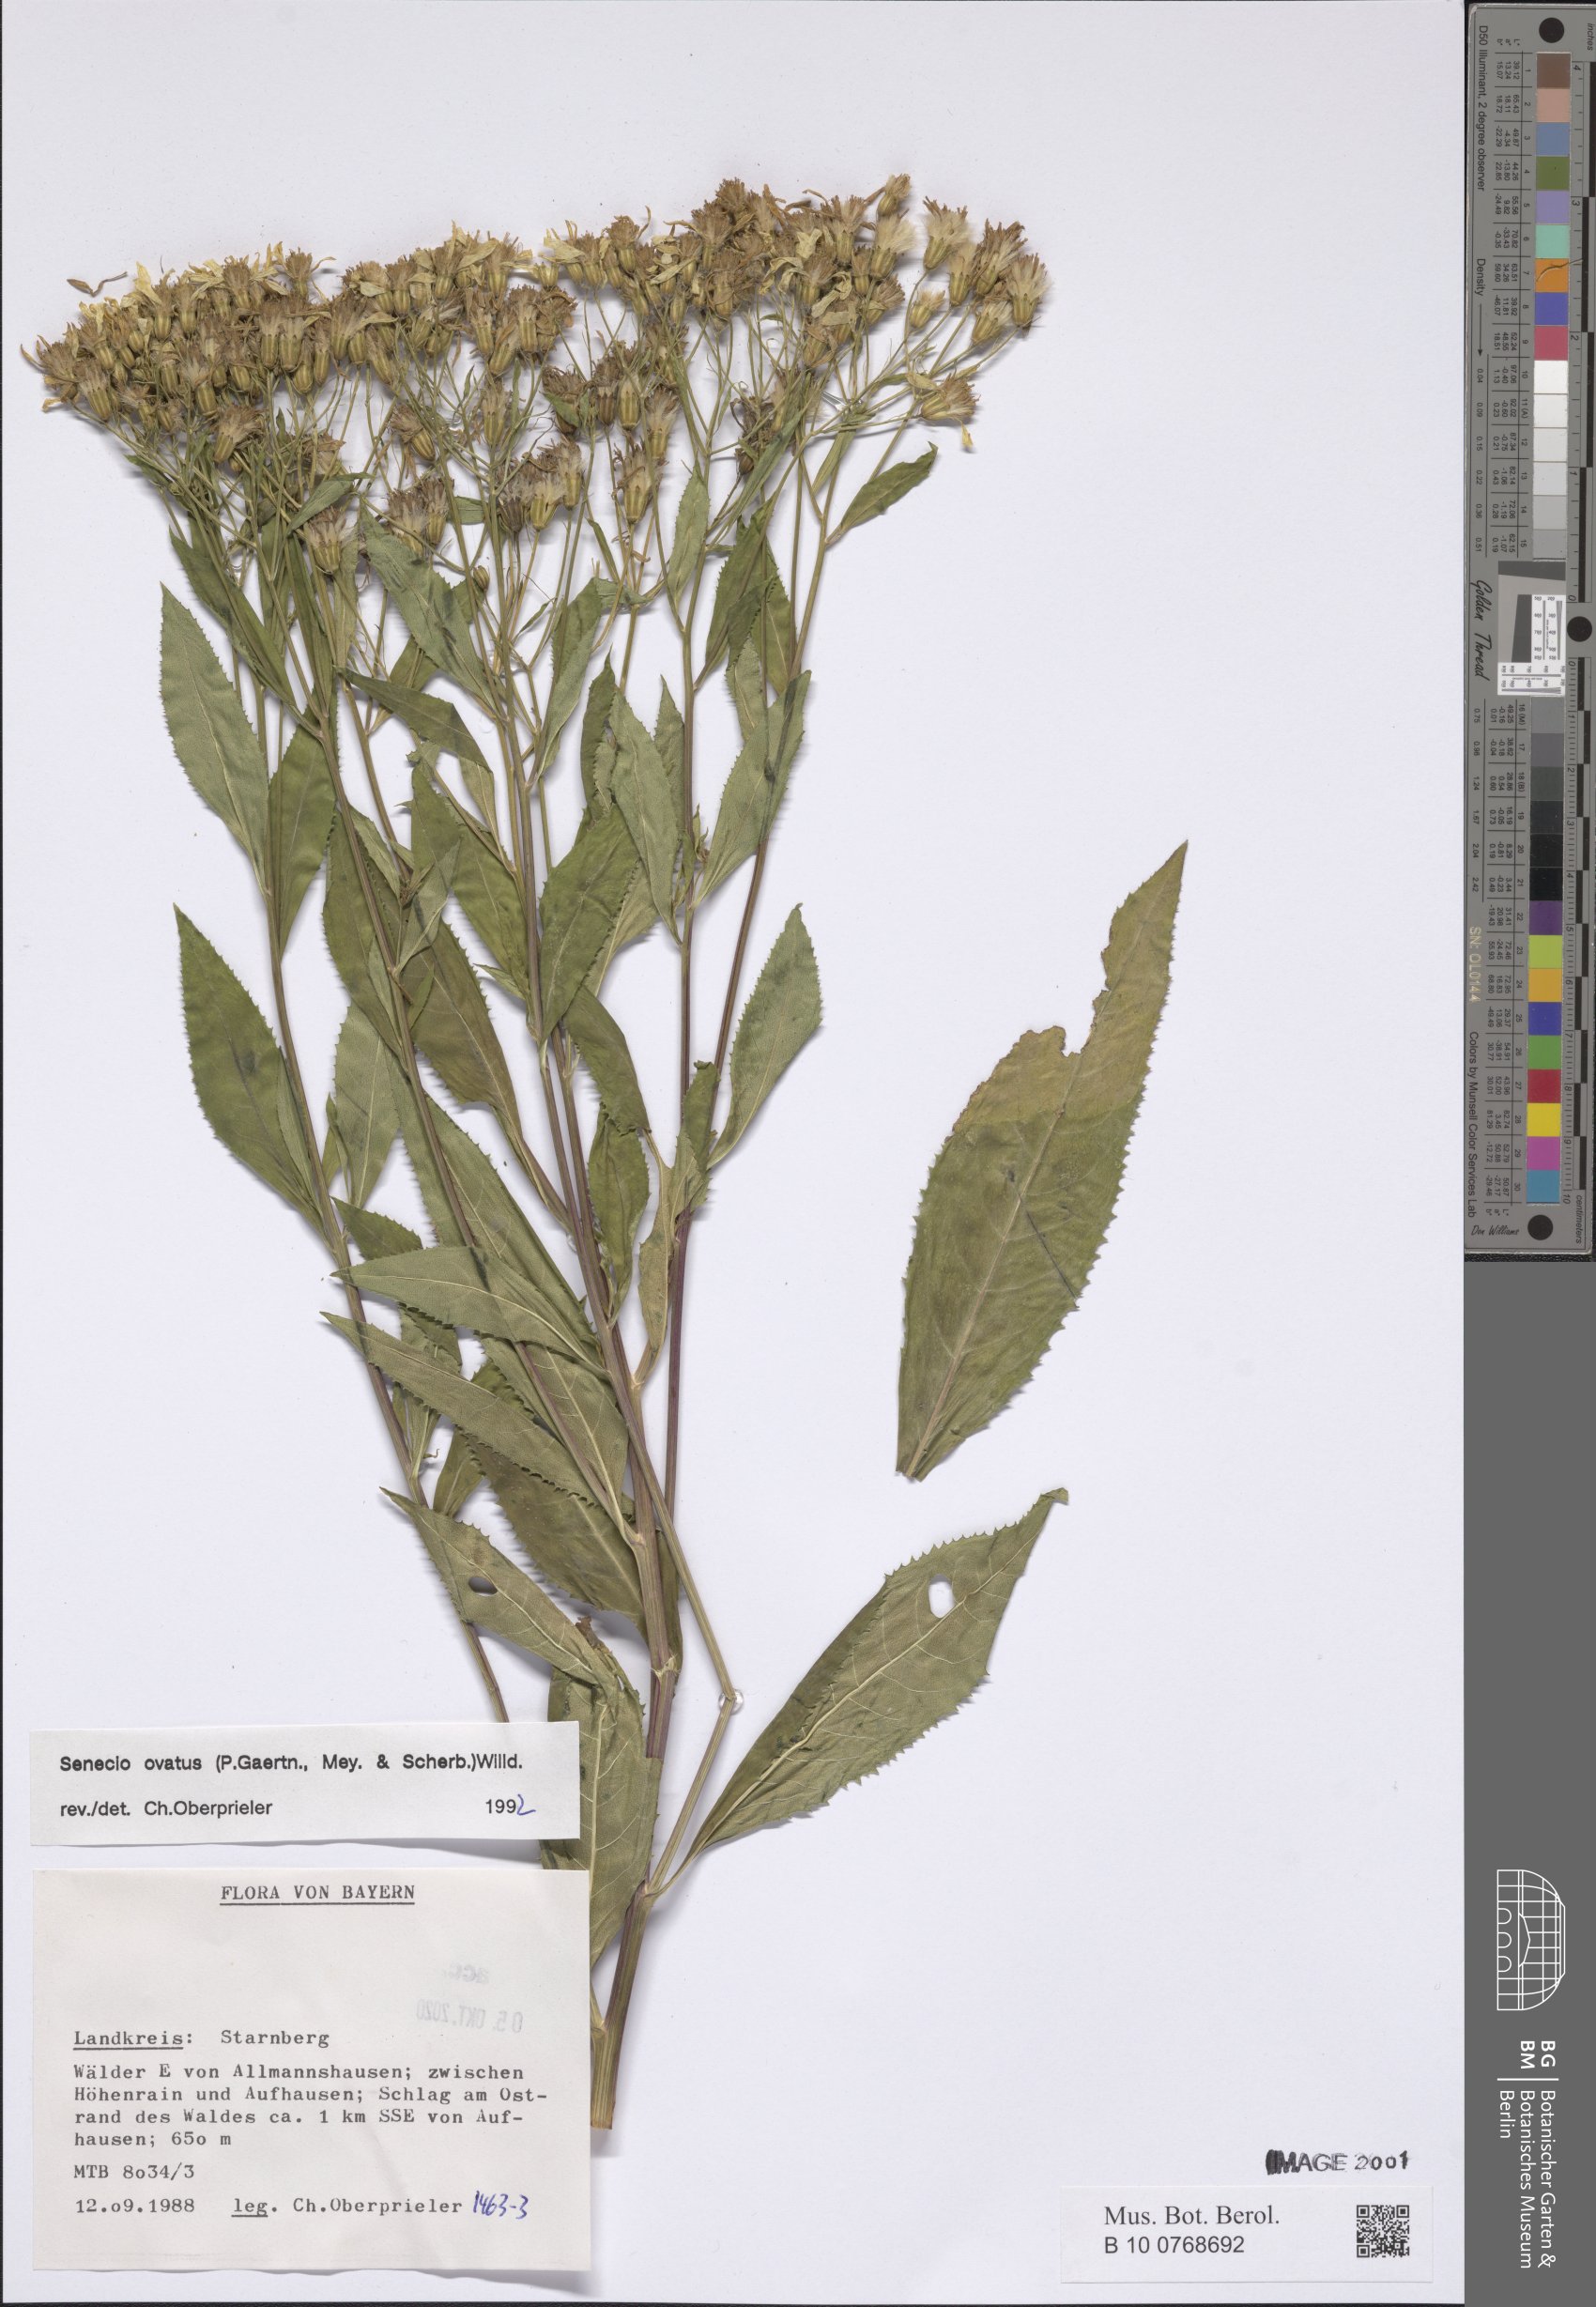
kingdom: Plantae
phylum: Tracheophyta
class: Magnoliopsida
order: Asterales
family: Asteraceae
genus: Senecio
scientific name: Senecio ovatus
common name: Wood ragwort
